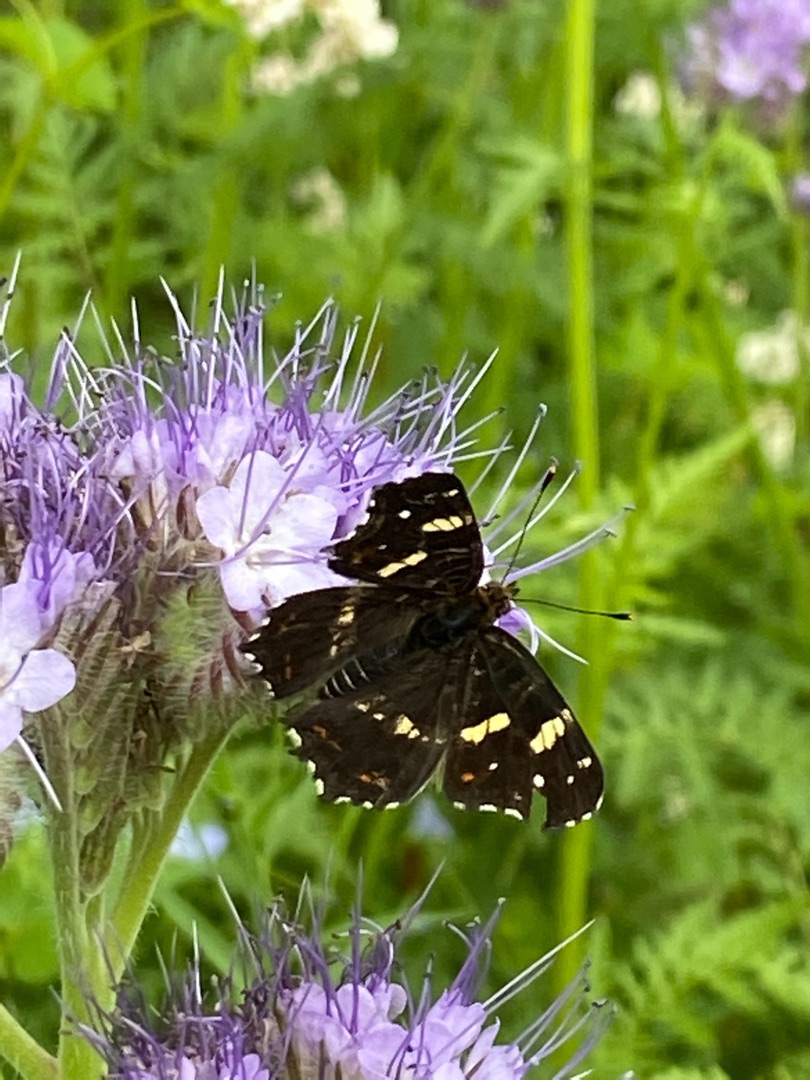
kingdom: Animalia
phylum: Arthropoda
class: Insecta
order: Lepidoptera
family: Nymphalidae
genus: Araschnia
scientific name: Araschnia levana
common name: Nældesommerfugl
